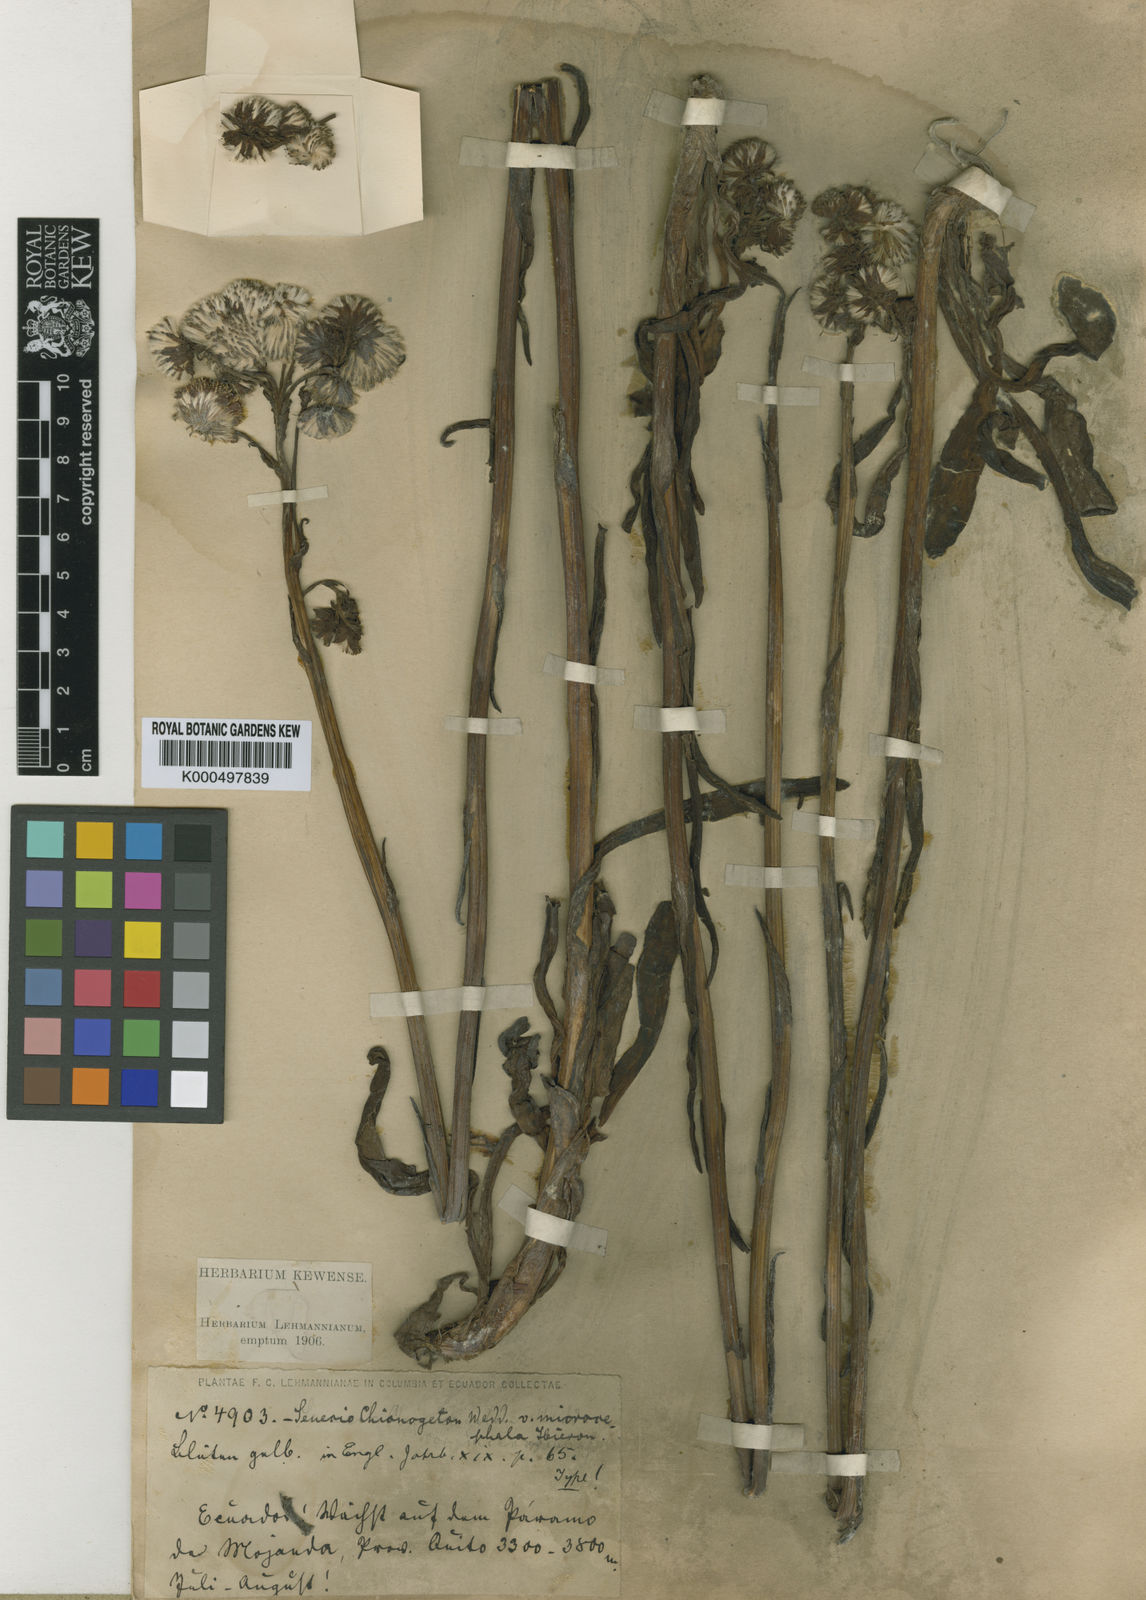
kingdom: Plantae
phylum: Tracheophyta
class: Magnoliopsida
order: Asterales
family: Asteraceae
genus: Senecio
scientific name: Senecio chionogeton
